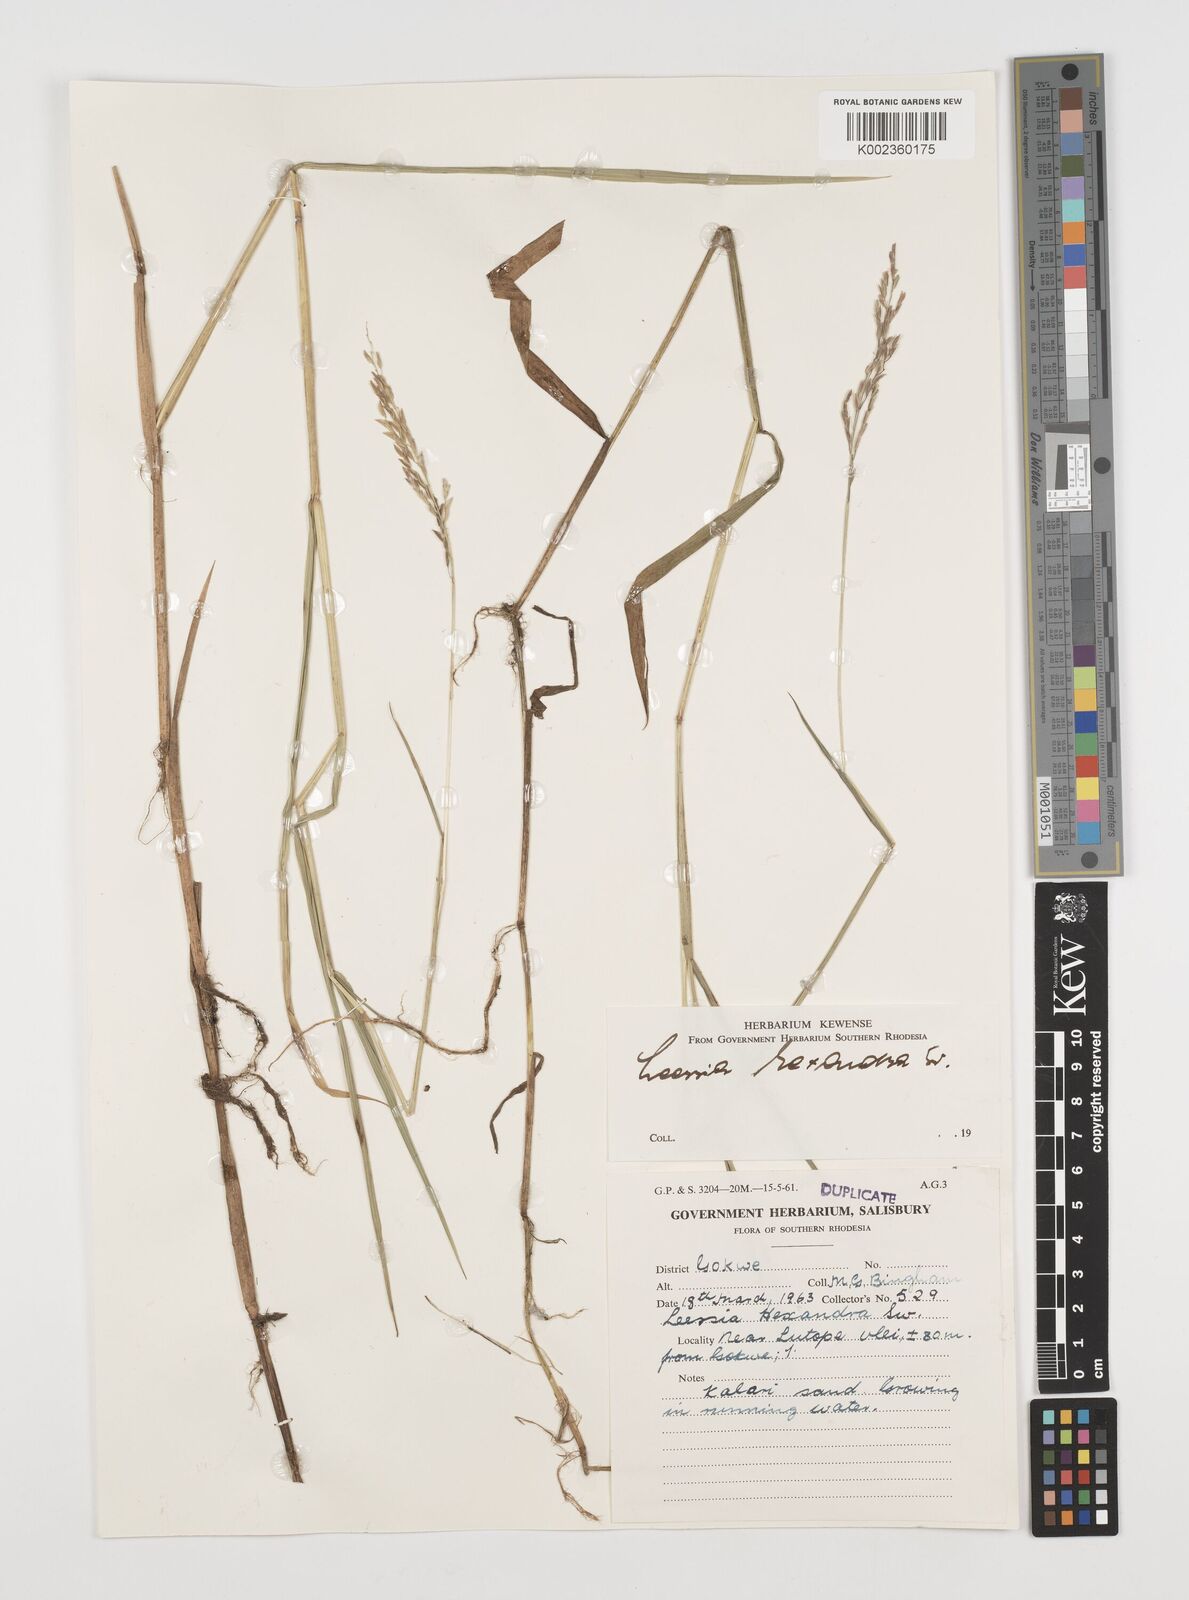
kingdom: Plantae
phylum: Tracheophyta
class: Liliopsida
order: Poales
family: Poaceae
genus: Leersia
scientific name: Leersia hexandra
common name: Southern cut grass
